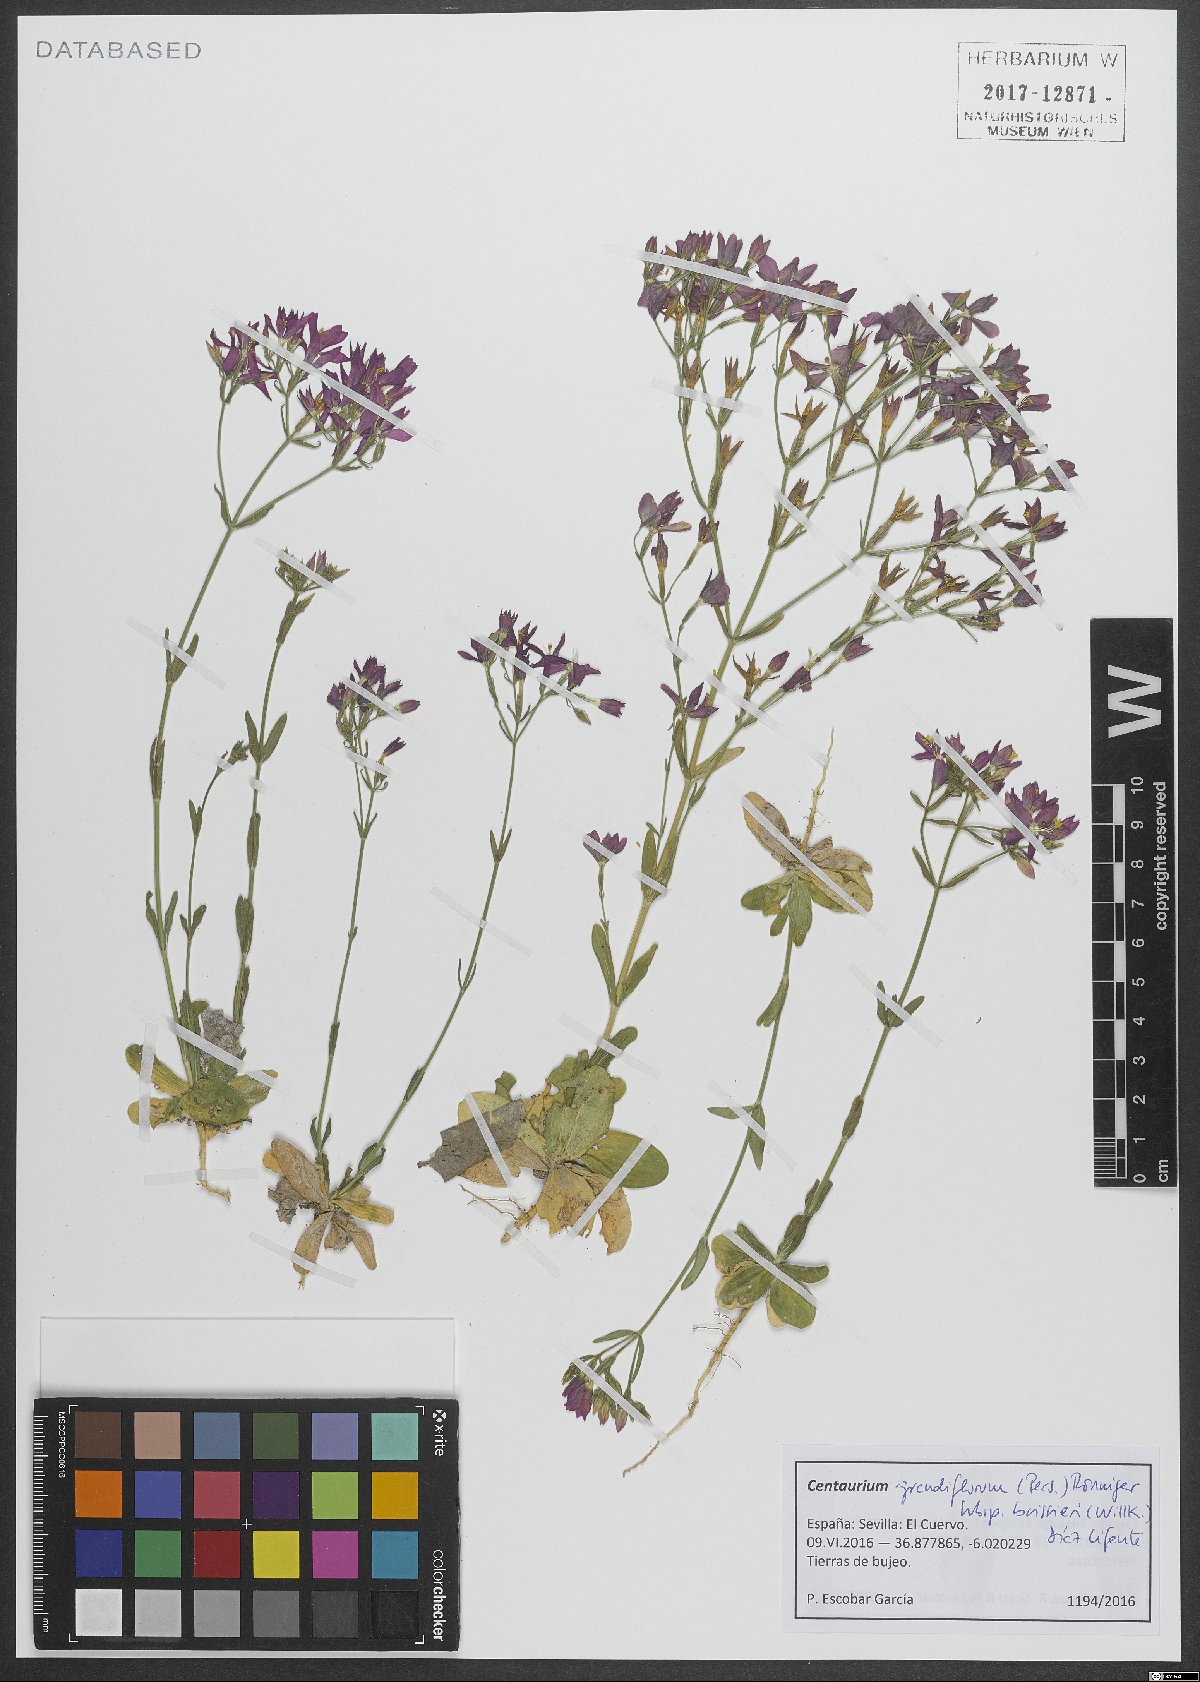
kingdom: Plantae
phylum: Tracheophyta
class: Magnoliopsida
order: Gentianales
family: Gentianaceae
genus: Centaurium
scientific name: Centaurium grandiflorum
